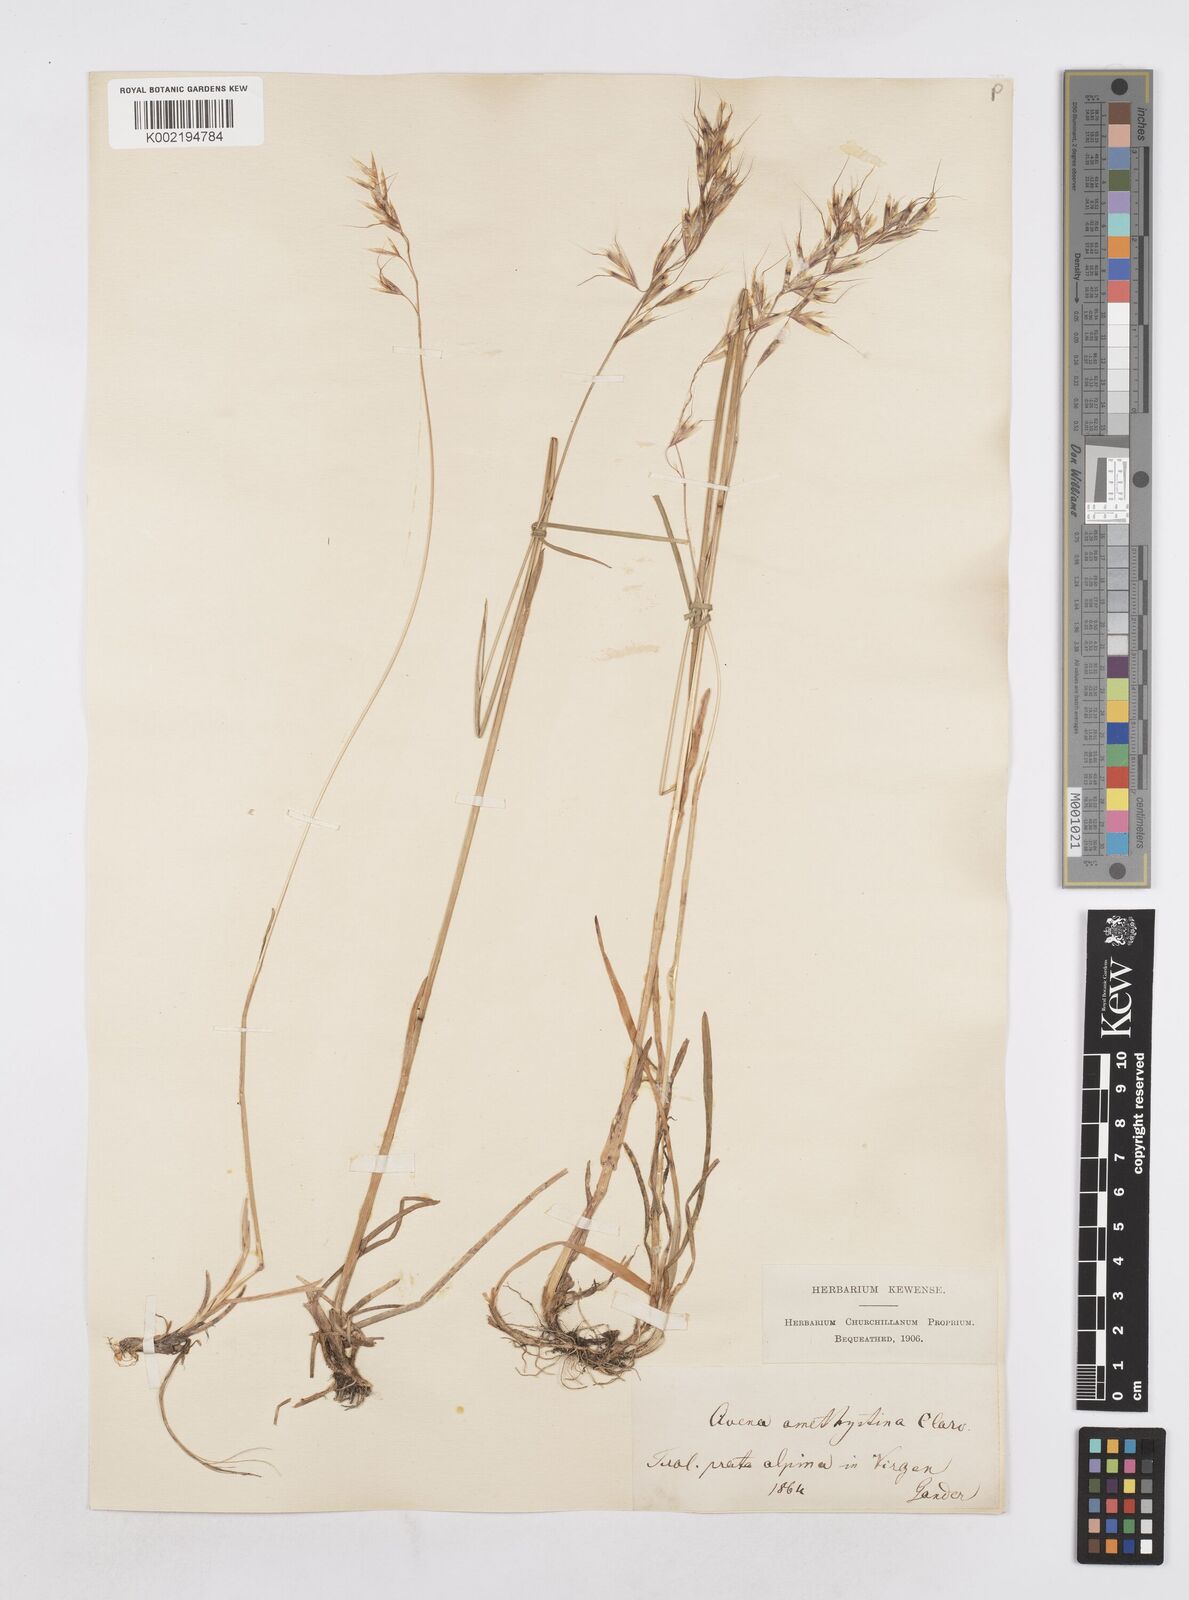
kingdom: Plantae
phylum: Tracheophyta
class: Liliopsida
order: Poales
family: Poaceae
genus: Avenula
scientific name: Avenula pubescens
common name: Downy alpine oatgrass
